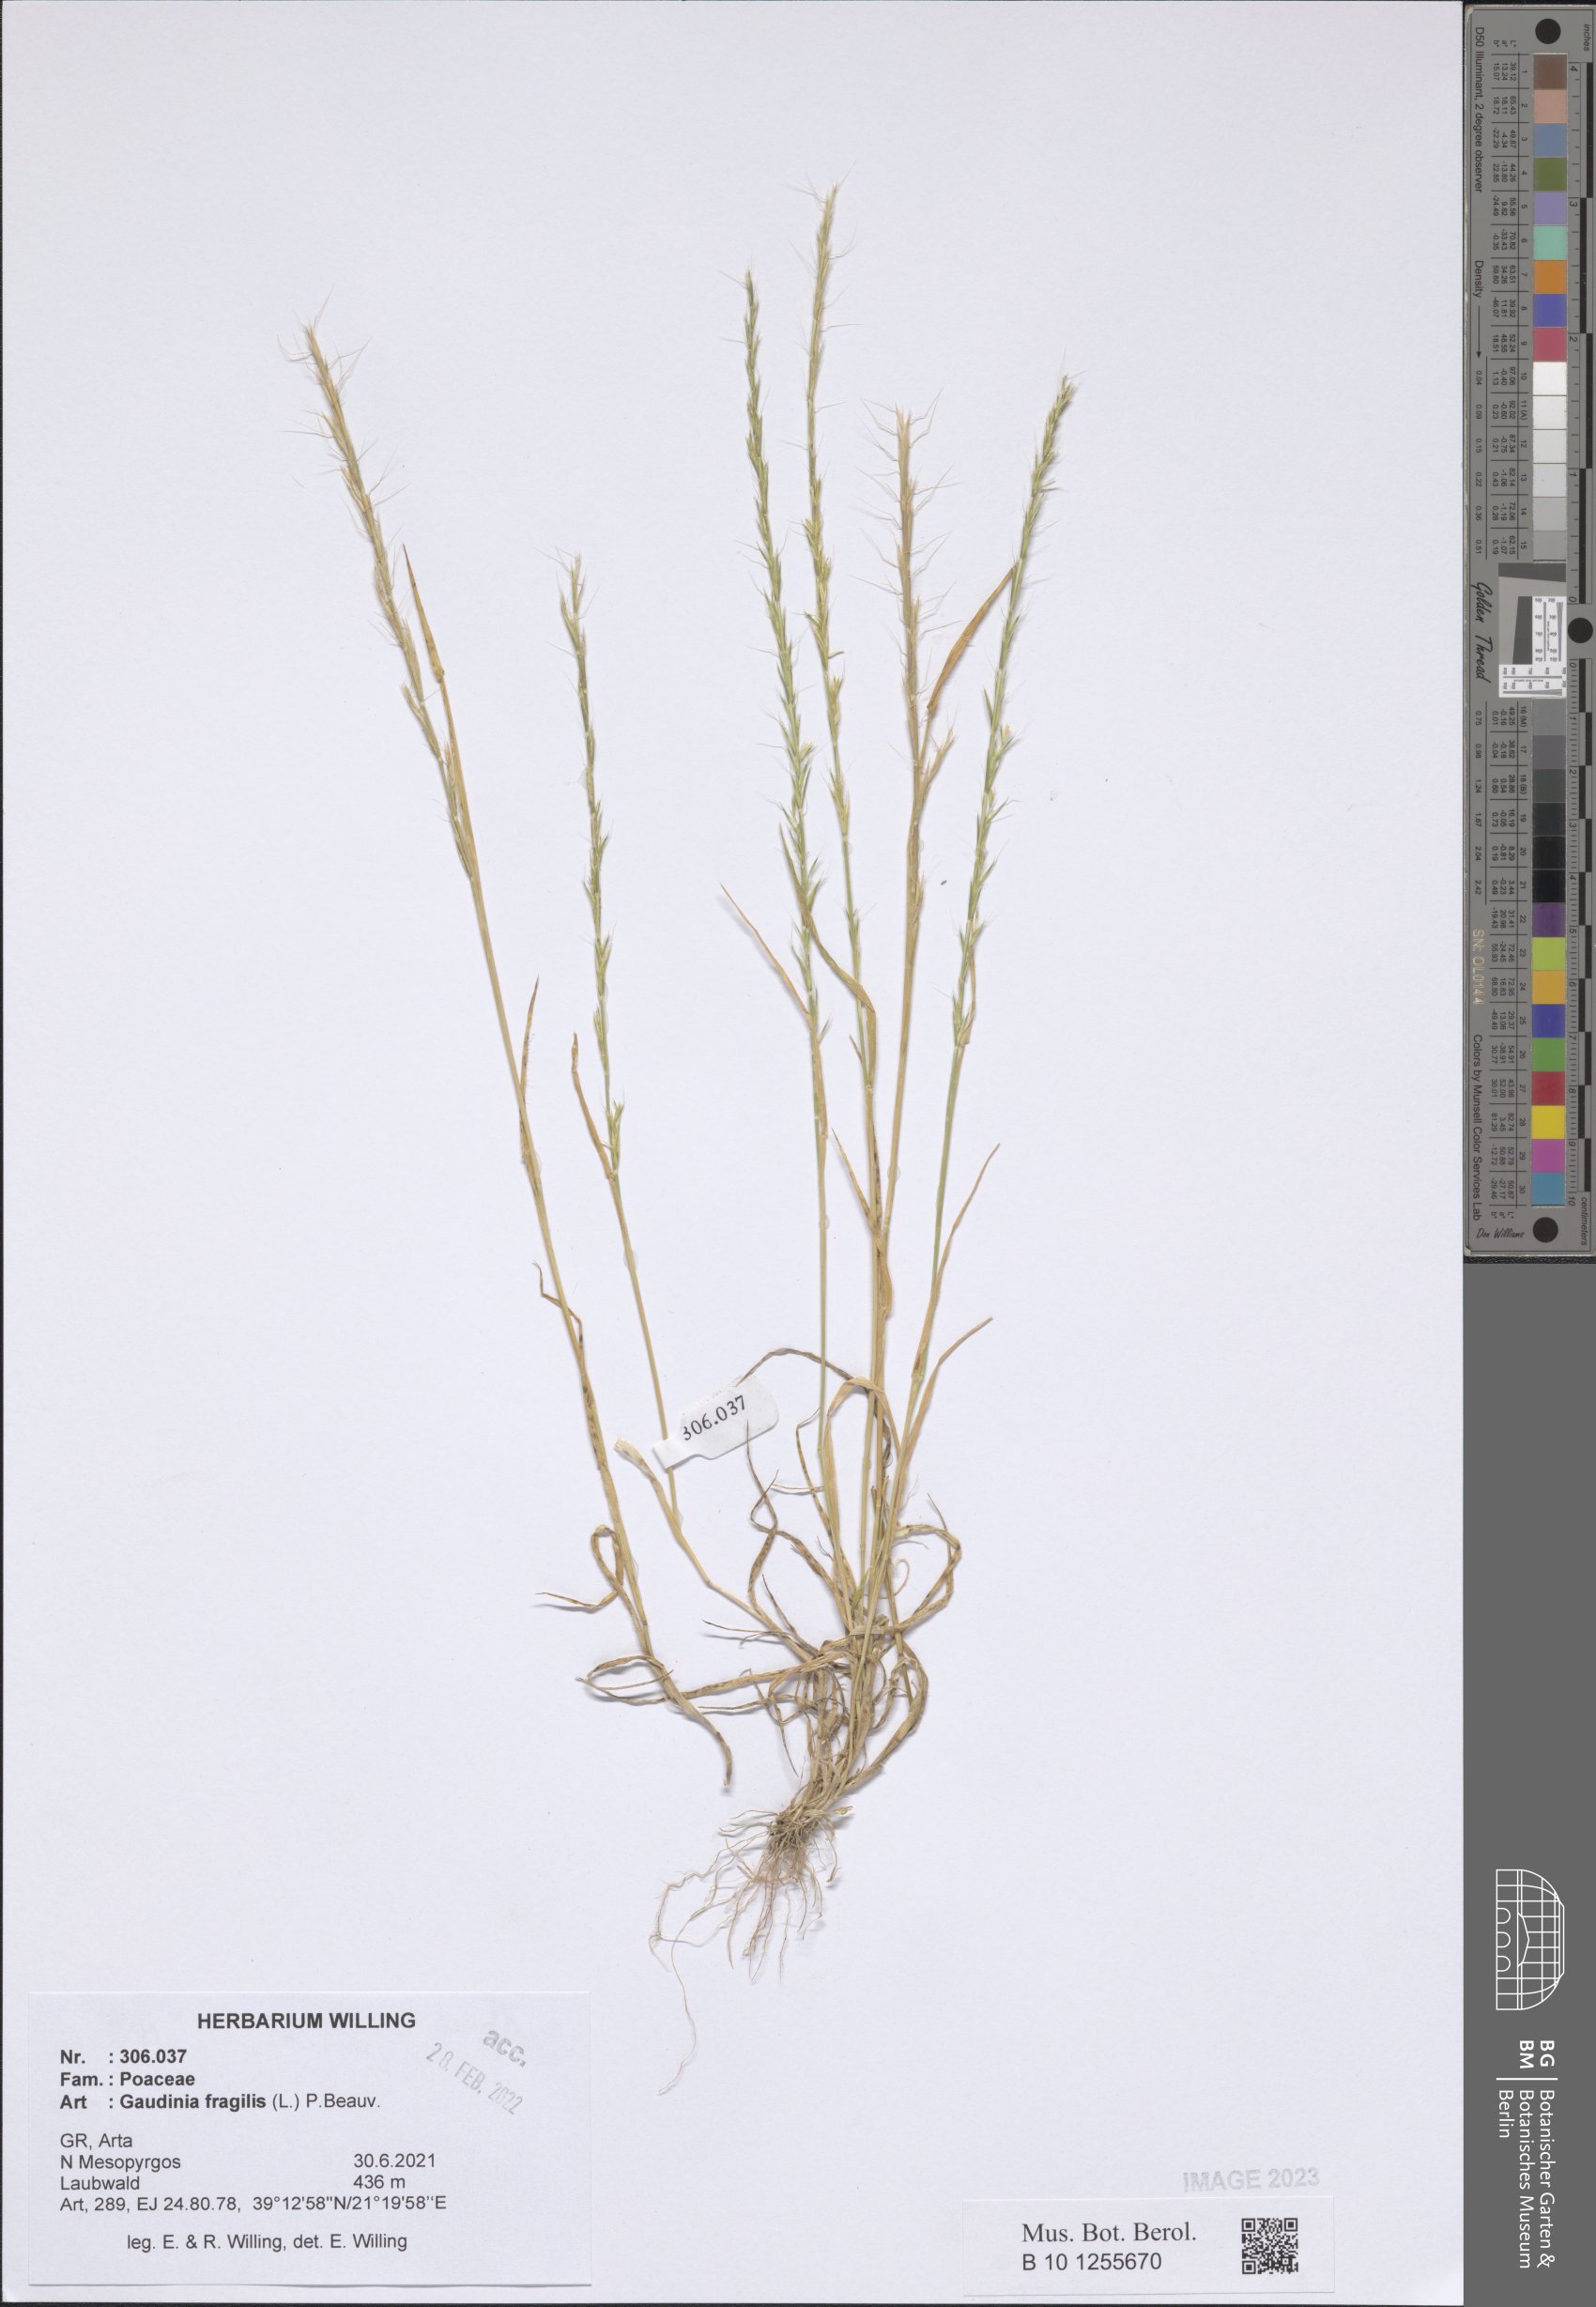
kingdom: Plantae
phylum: Tracheophyta
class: Liliopsida
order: Poales
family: Poaceae
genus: Gaudinia
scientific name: Gaudinia fragilis
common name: French oat-grass
